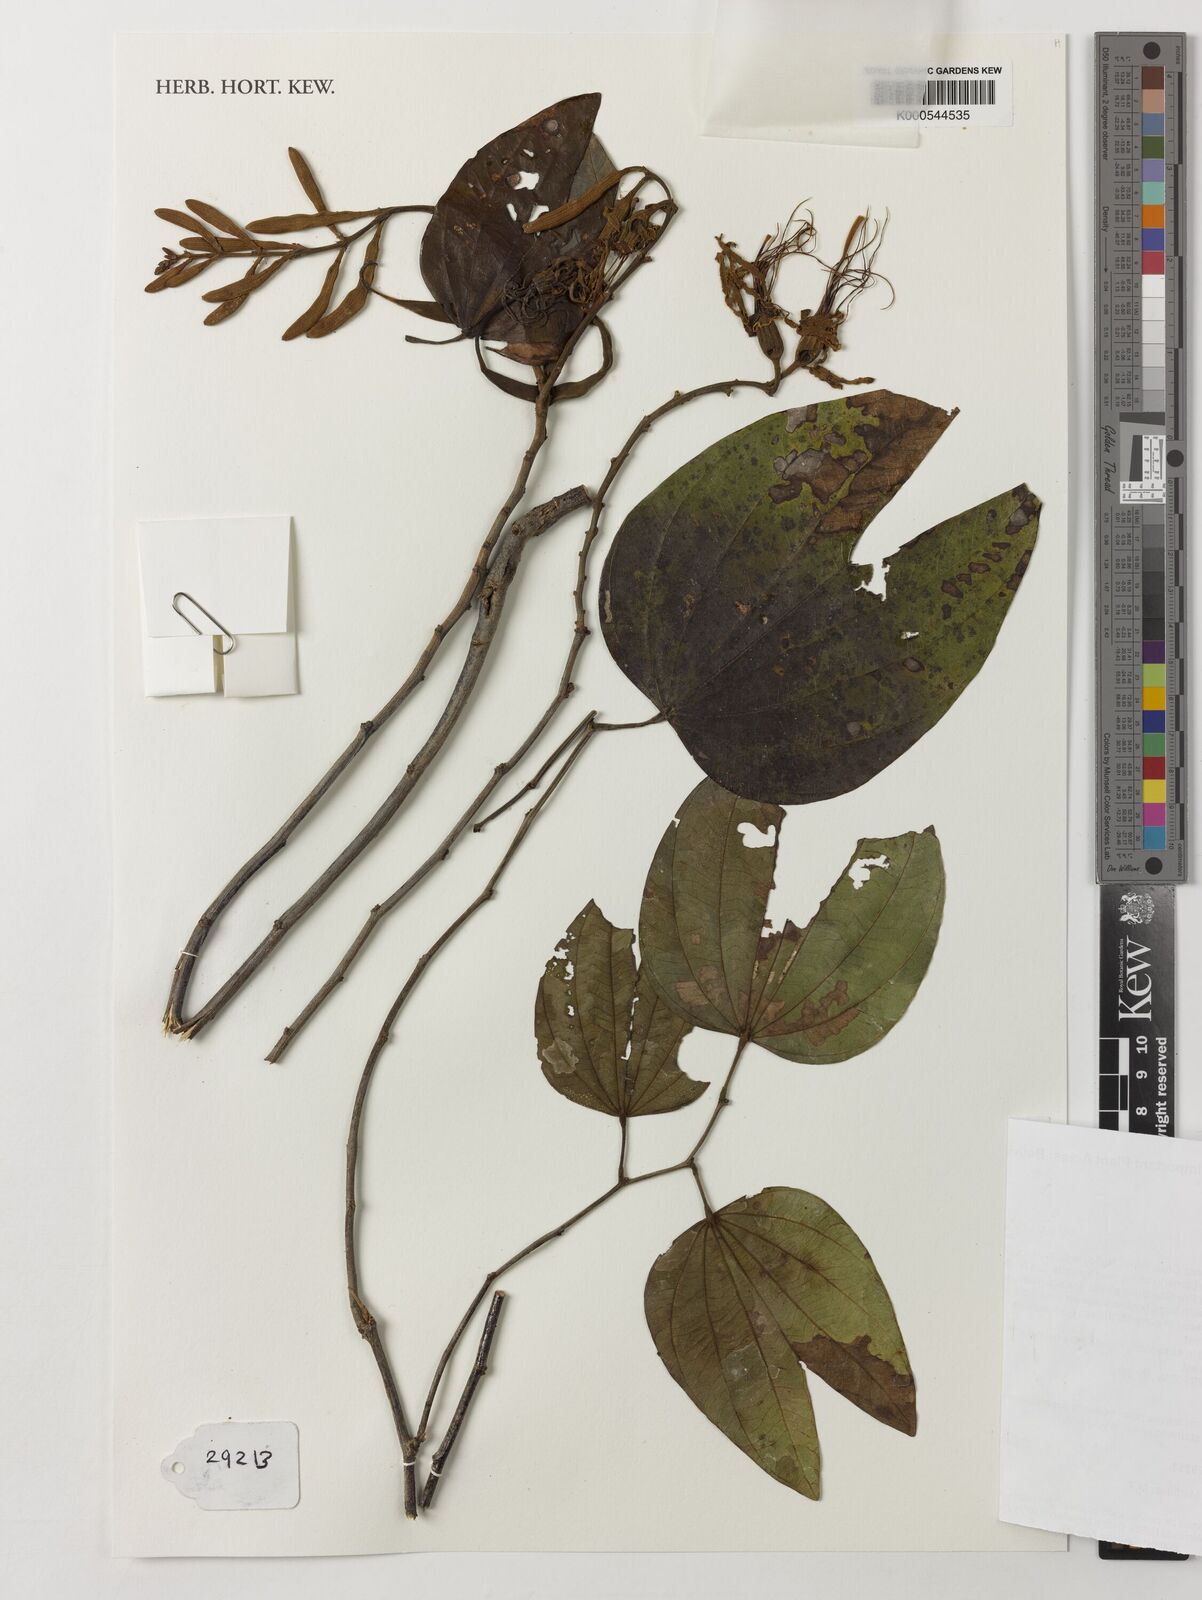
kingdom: Plantae
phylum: Tracheophyta
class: Magnoliopsida
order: Fabales
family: Fabaceae
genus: Bauhinia
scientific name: Bauhinia
